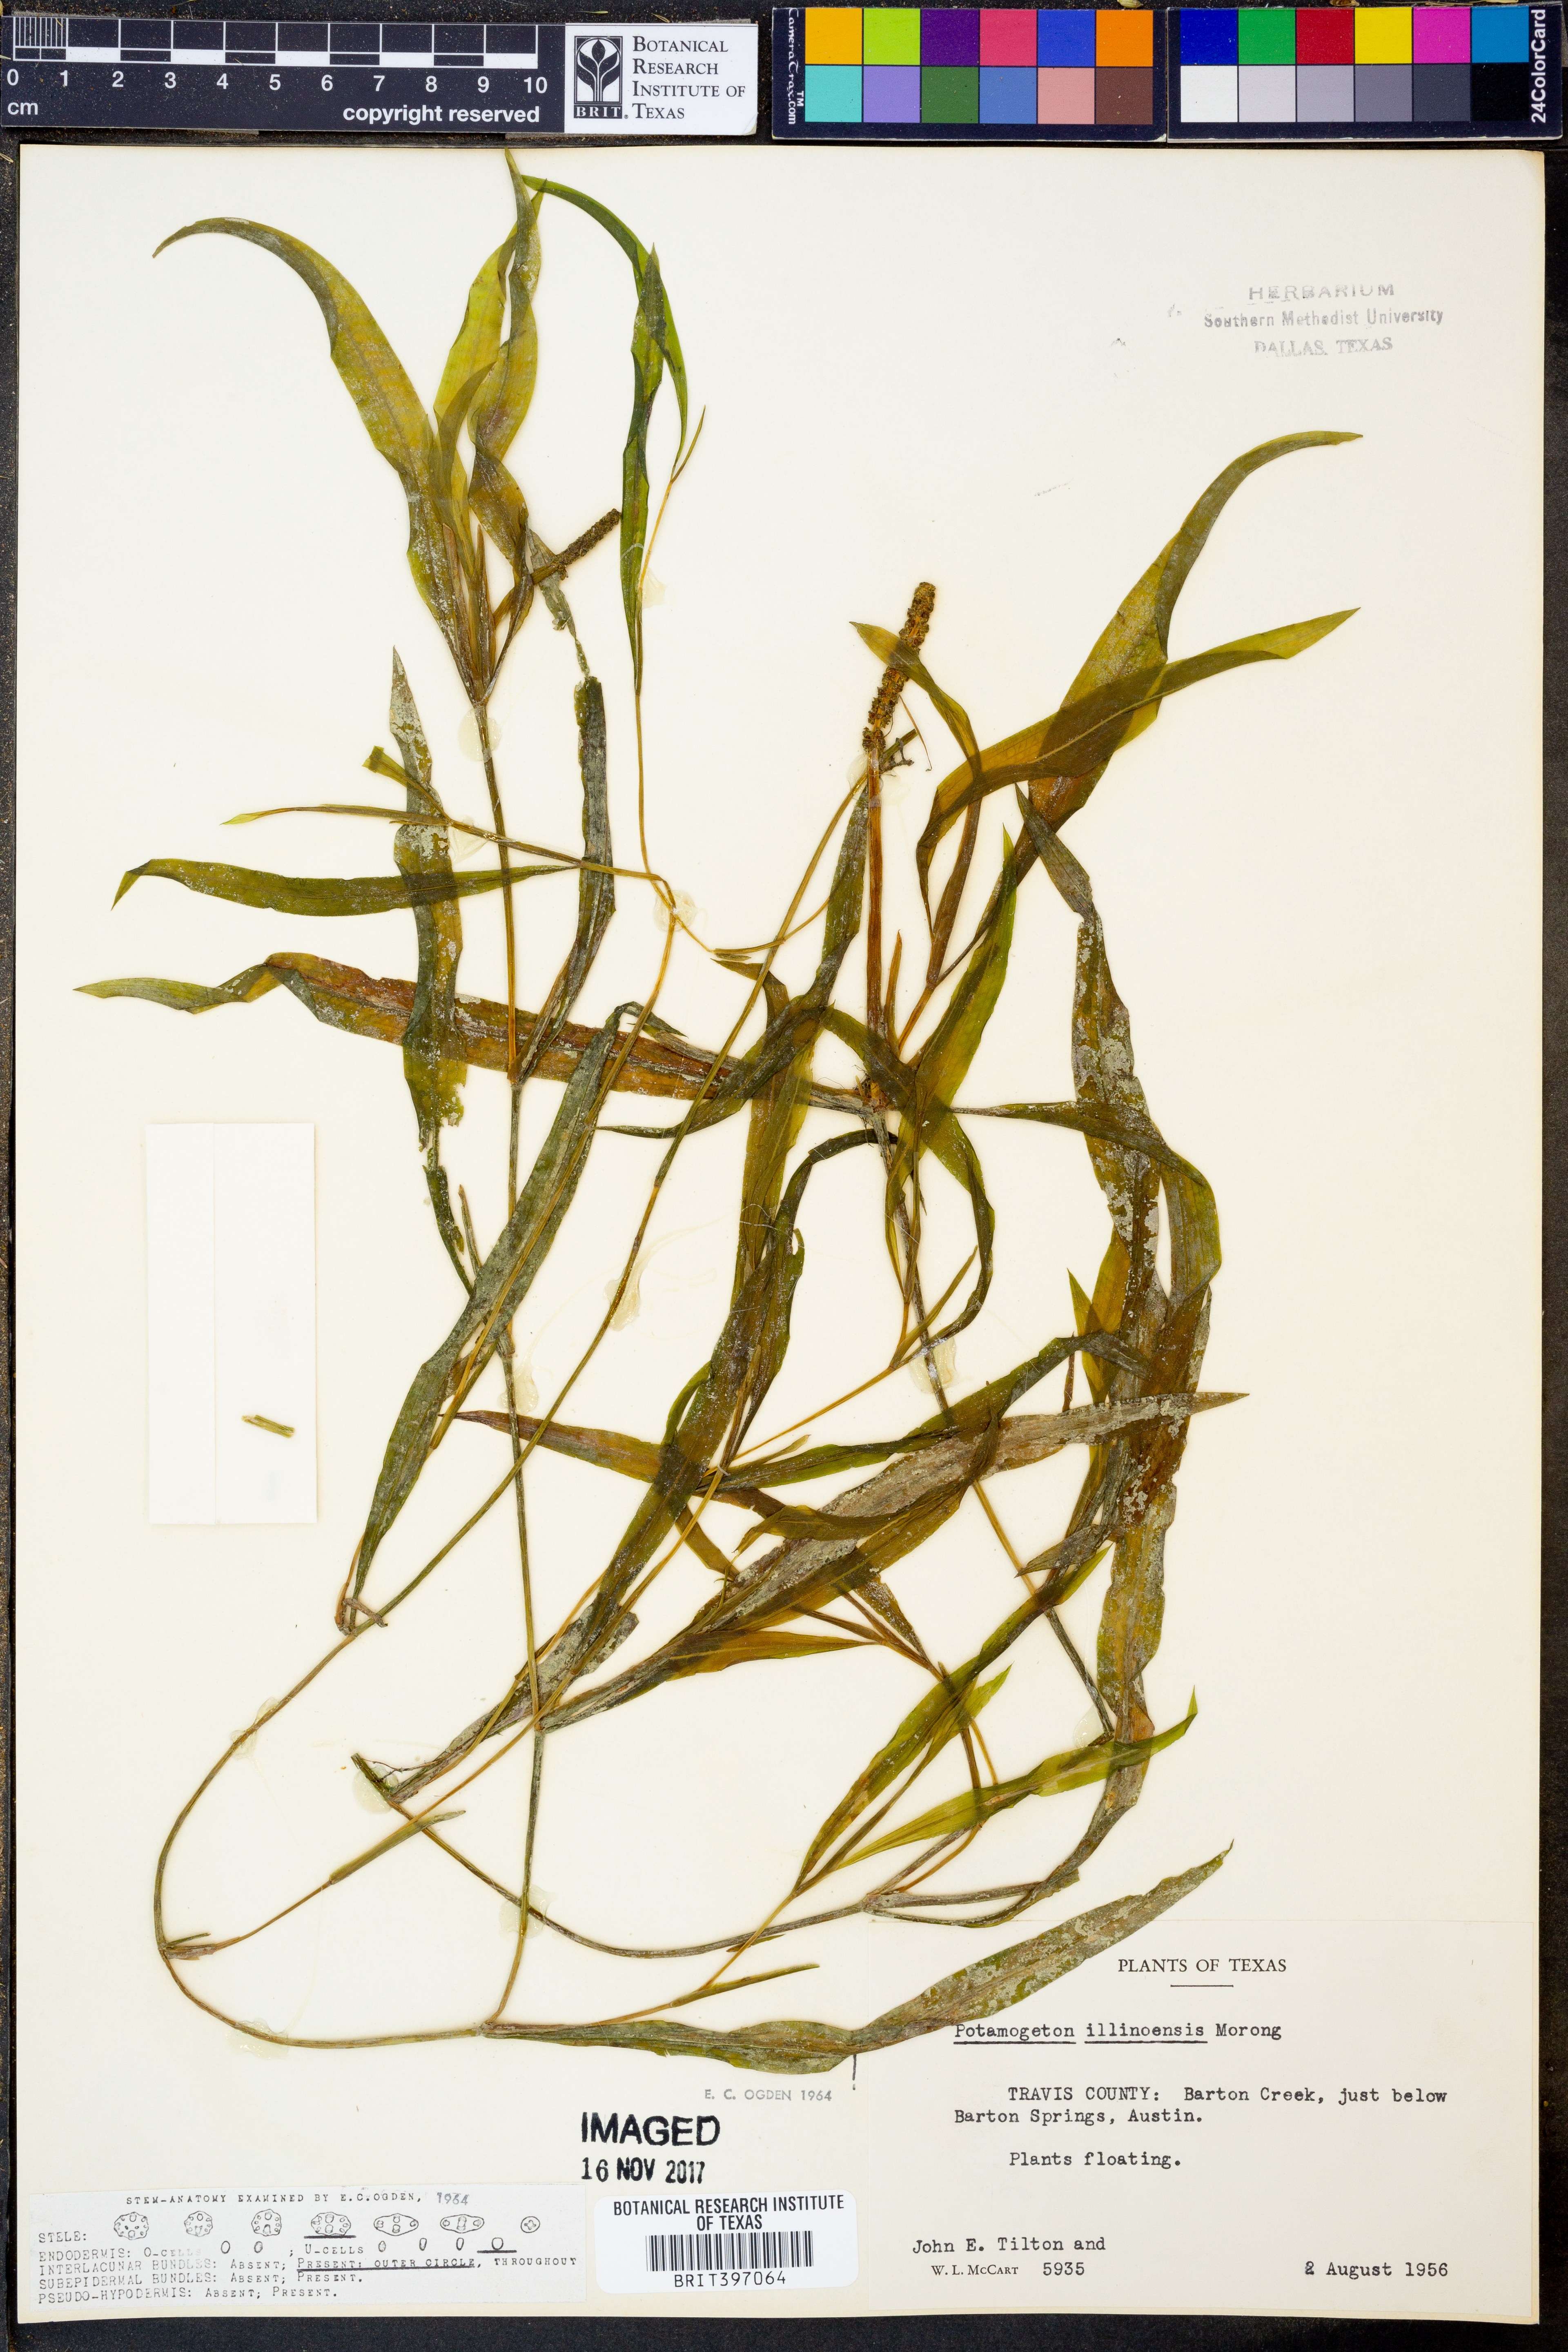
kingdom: Plantae
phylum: Tracheophyta
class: Liliopsida
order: Alismatales
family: Potamogetonaceae
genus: Potamogeton
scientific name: Potamogeton illinoensis
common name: Illinois pondweed
